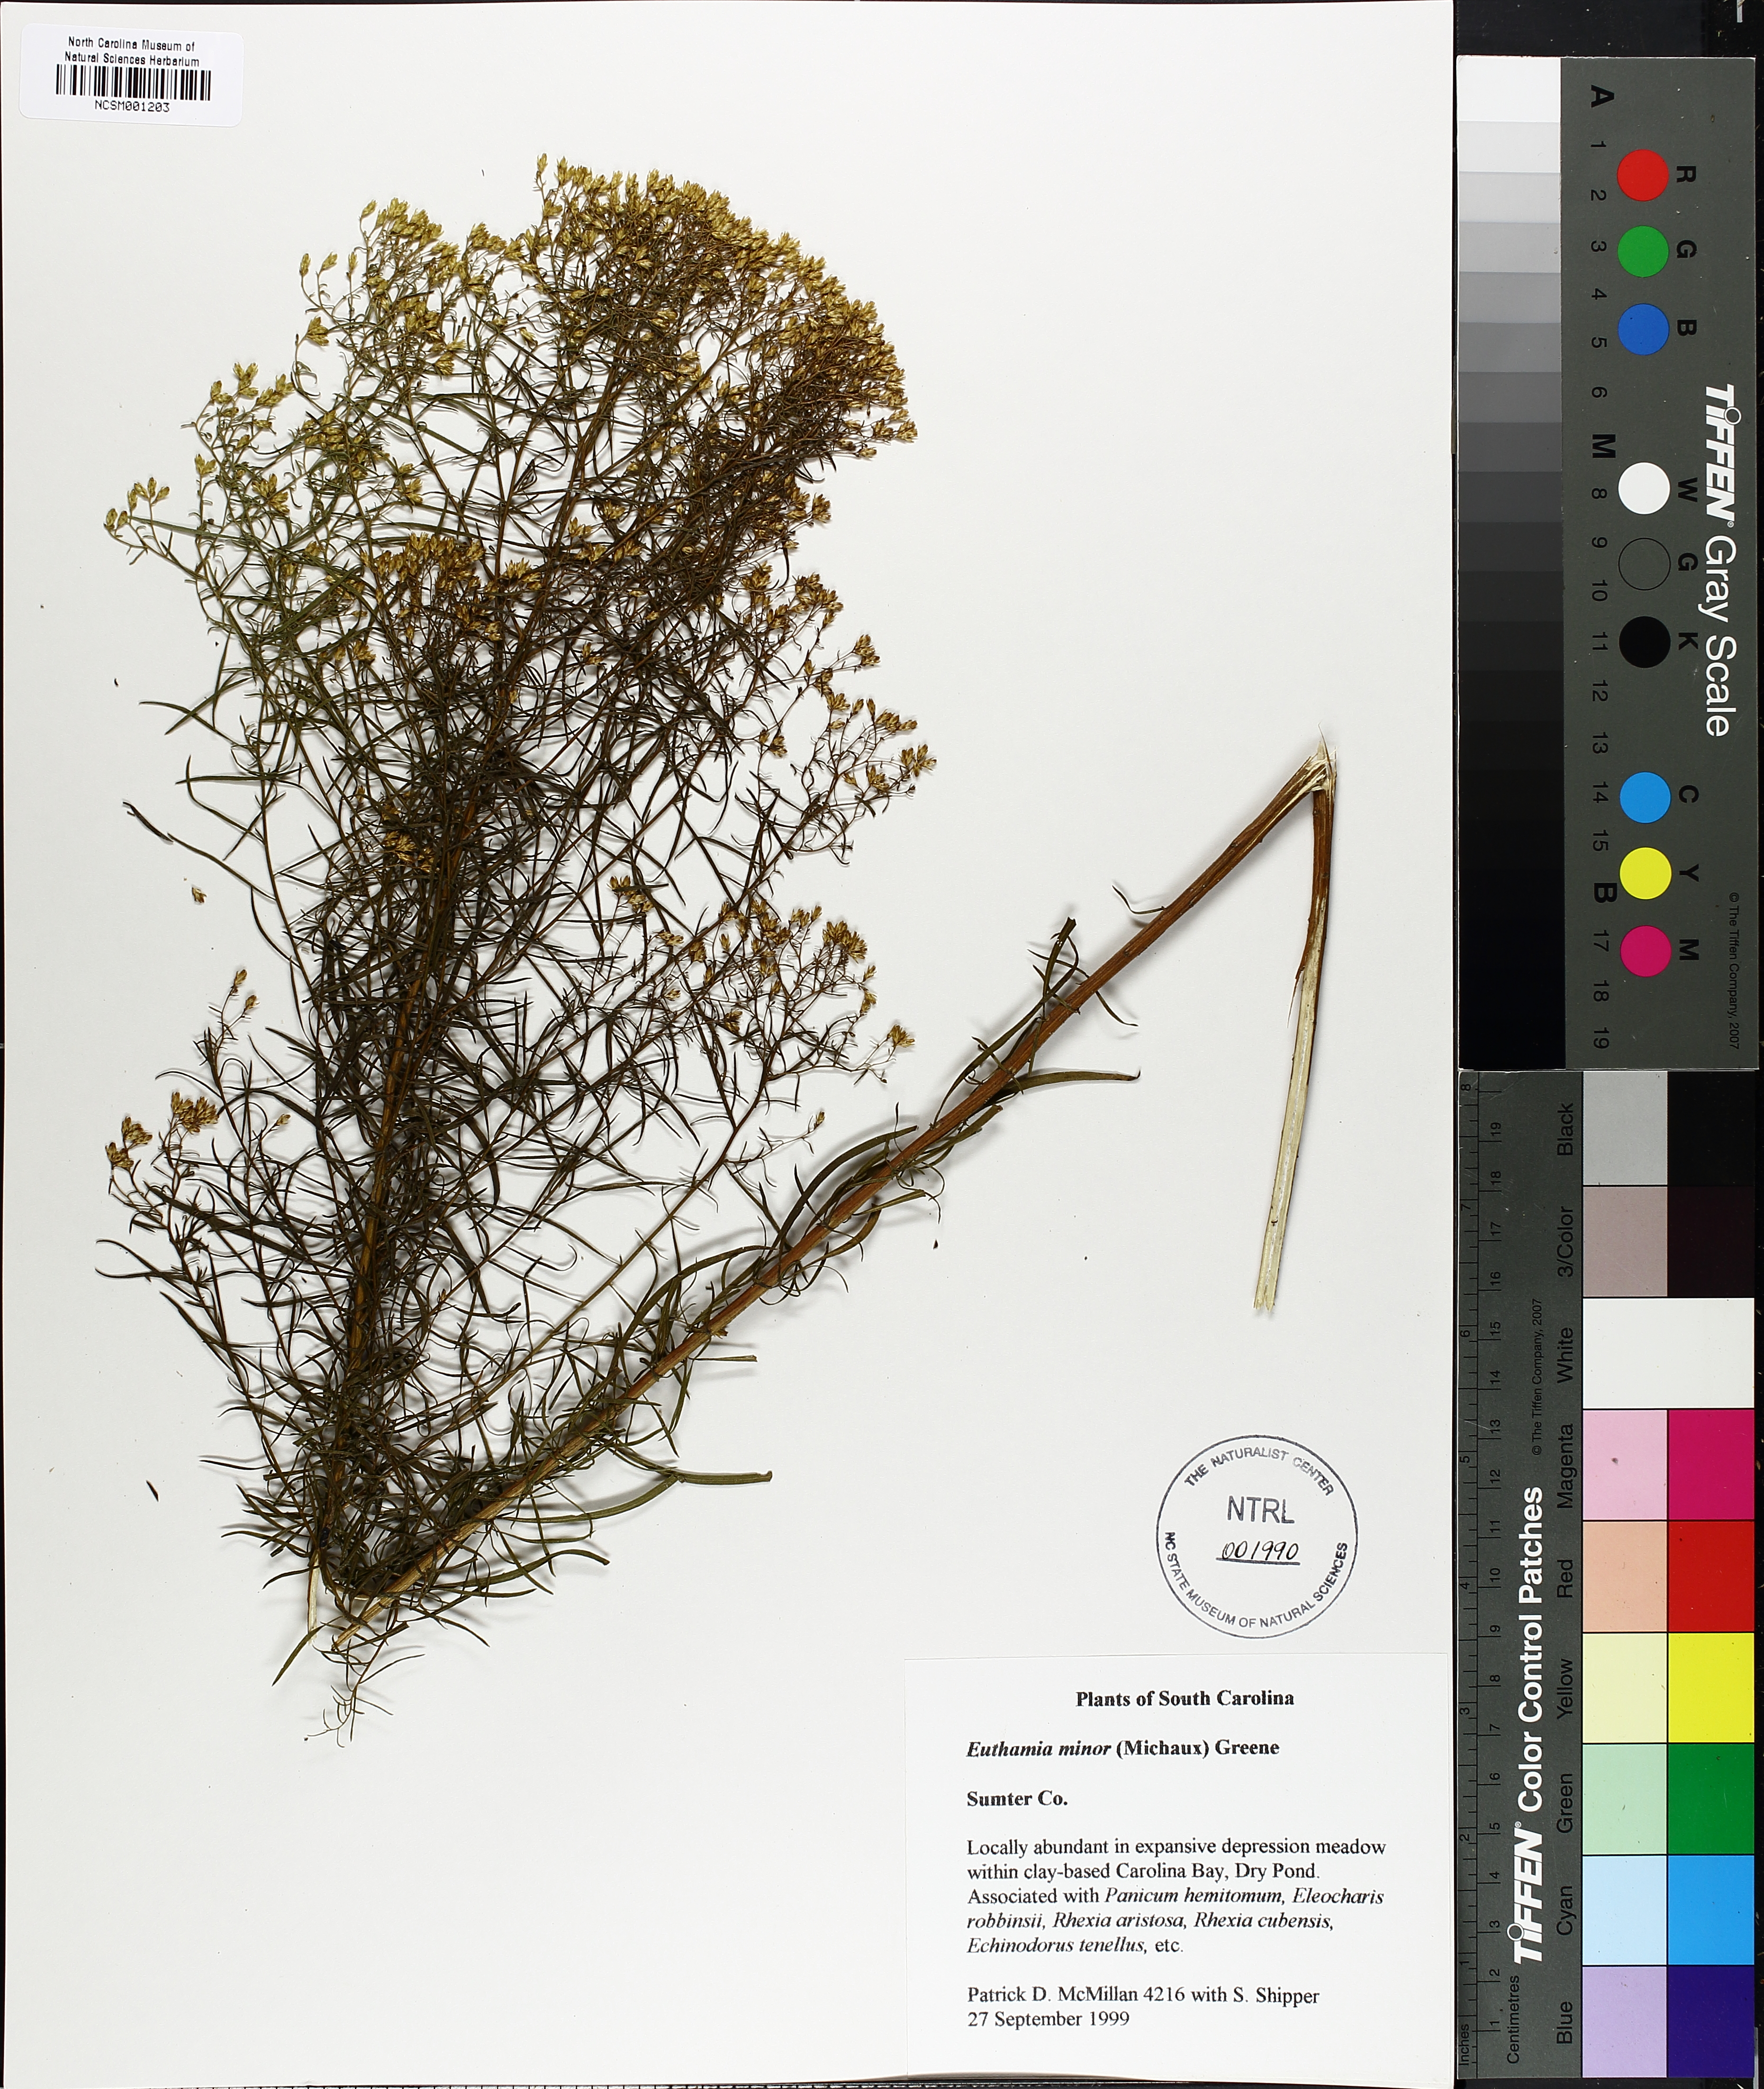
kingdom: Plantae
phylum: Tracheophyta
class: Magnoliopsida
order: Asterales
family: Asteraceae
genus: Euthamia
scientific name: Euthamia caroliniana
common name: Coastal plain goldentop
